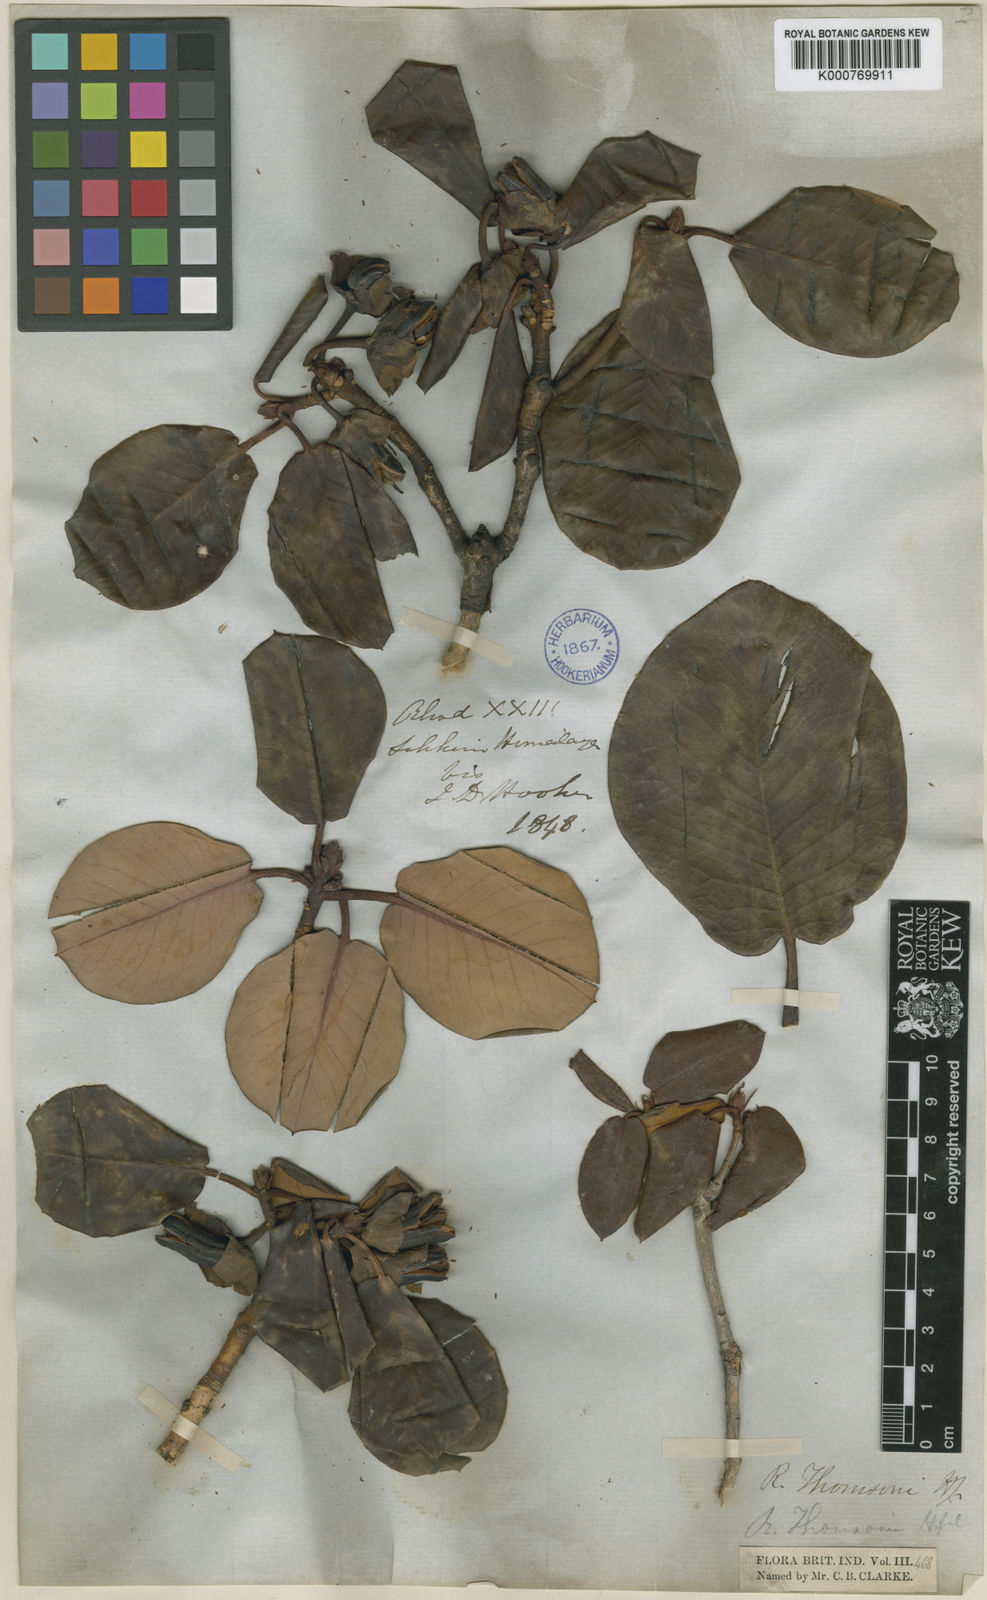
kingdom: Plantae
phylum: Tracheophyta
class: Magnoliopsida
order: Ericales
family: Ericaceae
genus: Rhododendron
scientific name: Rhododendron
